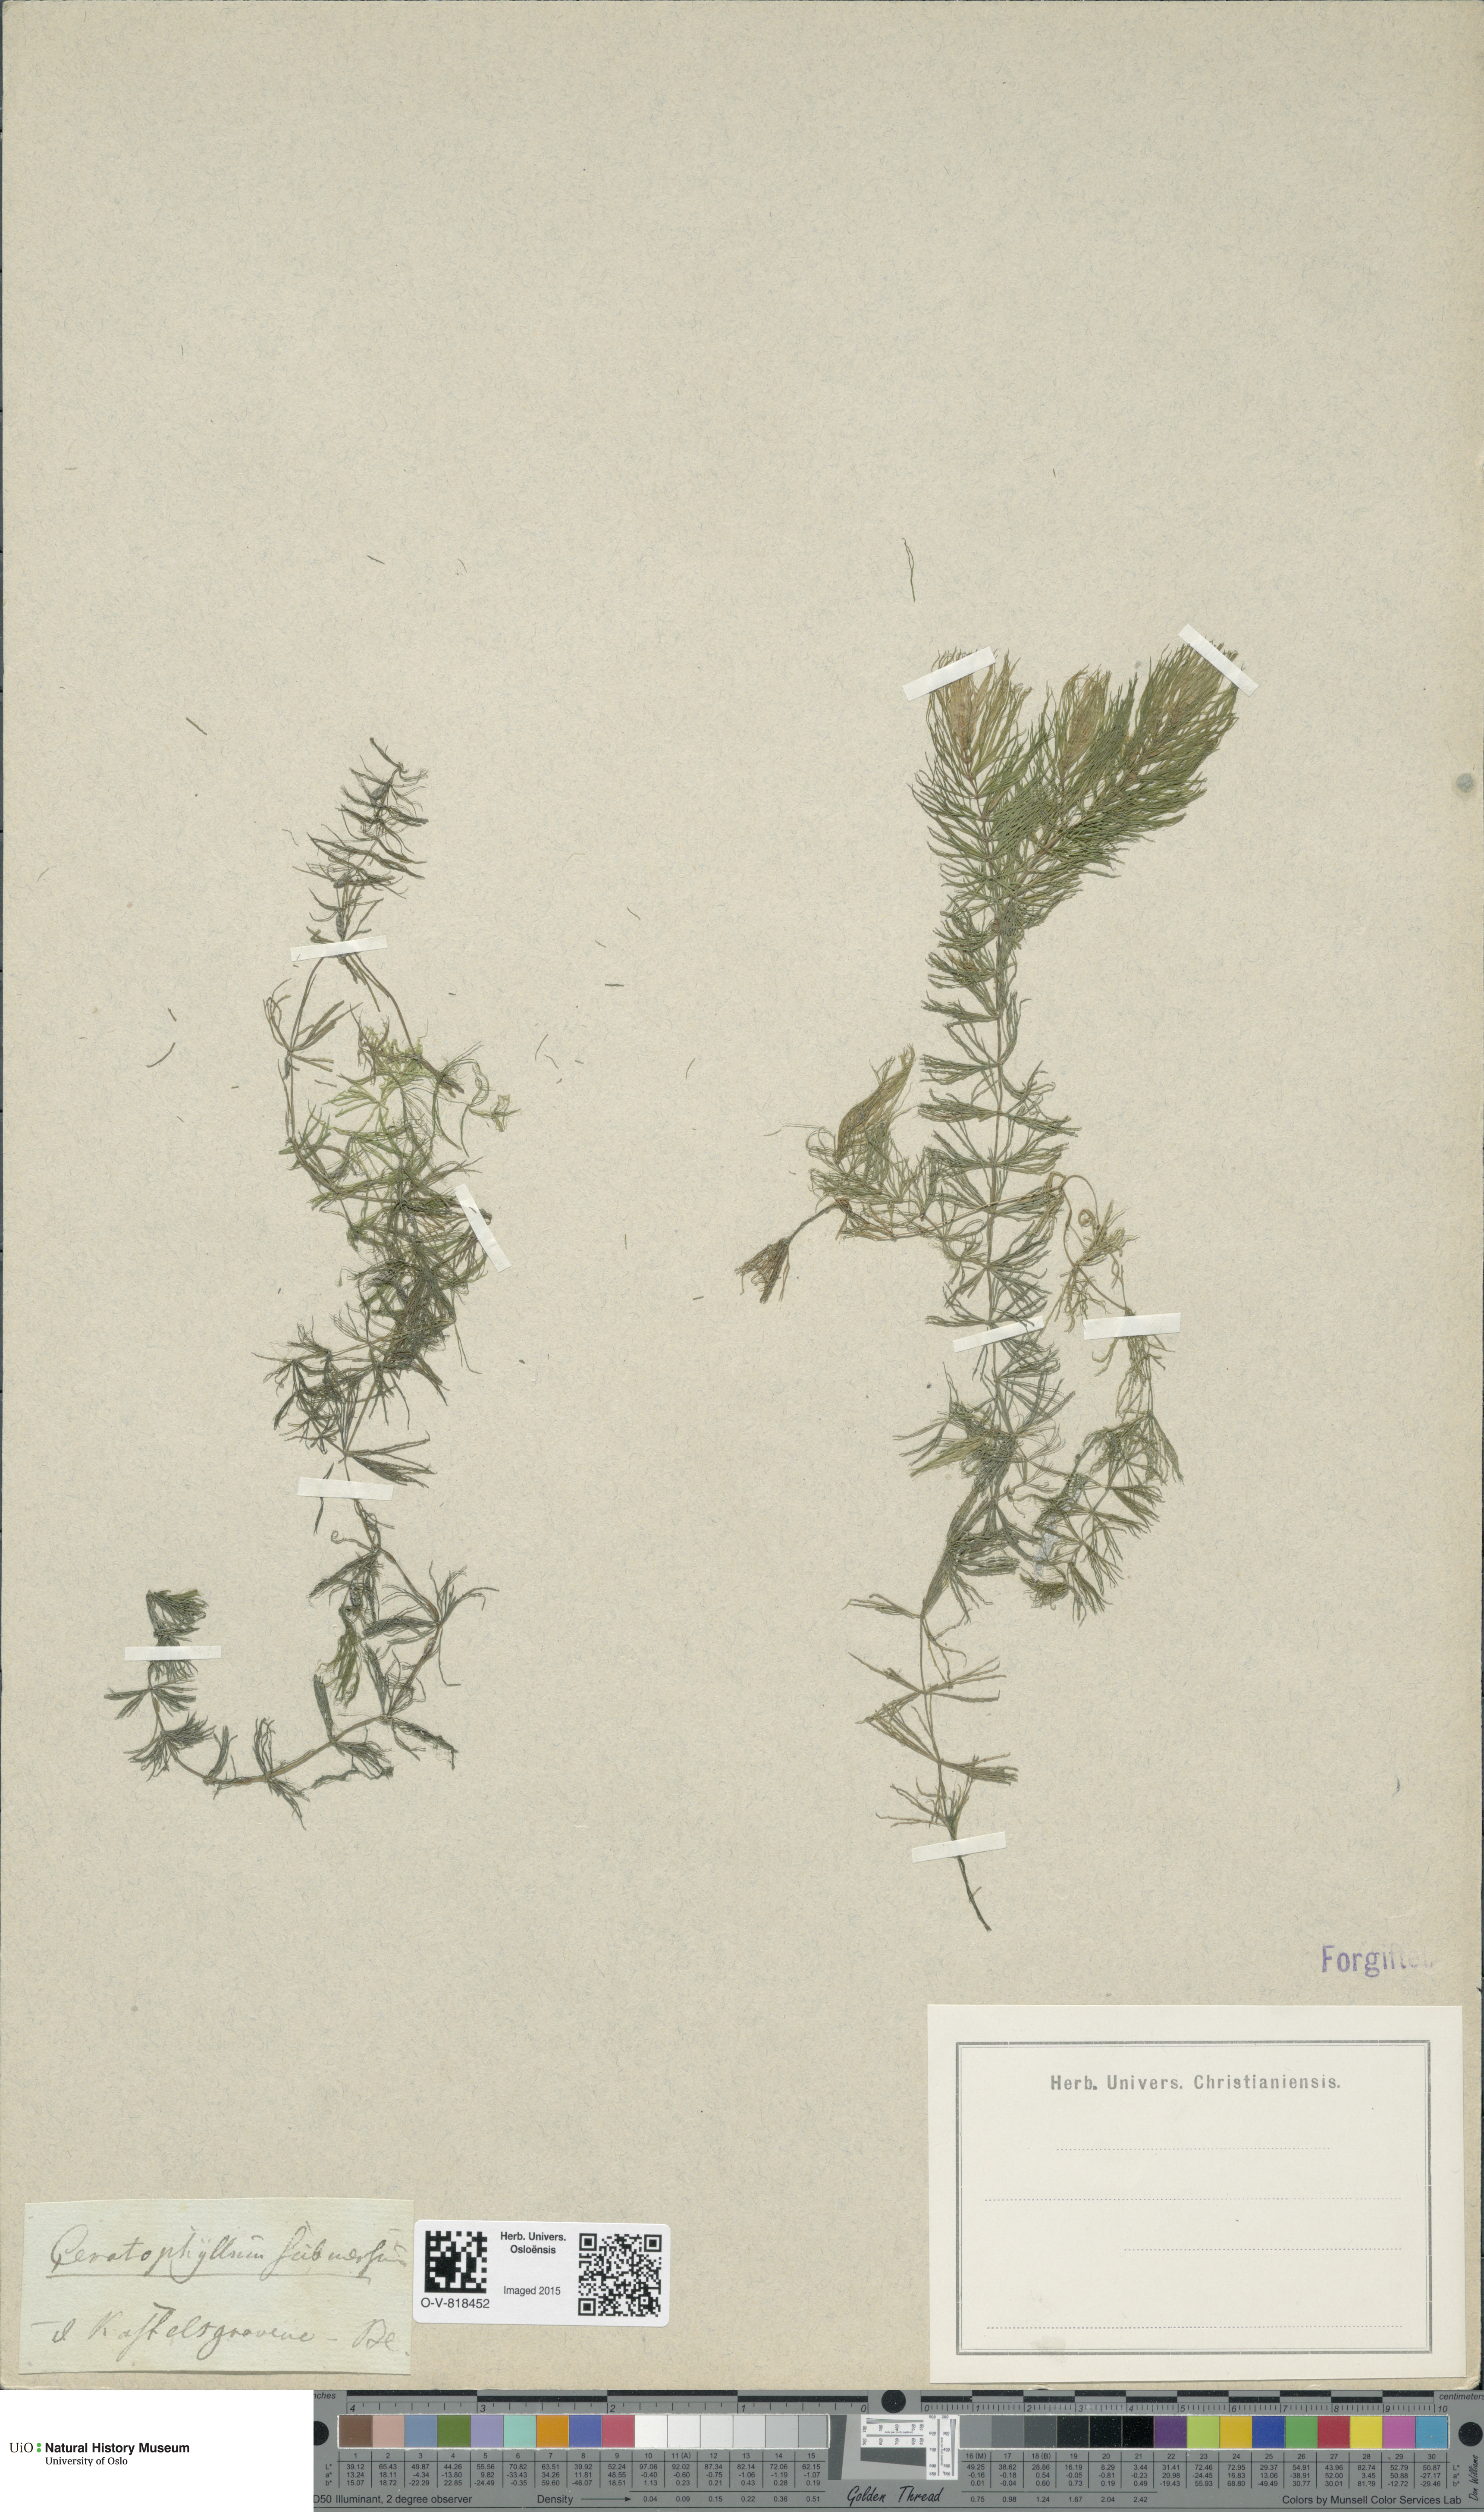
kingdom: Plantae
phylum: Tracheophyta
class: Magnoliopsida
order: Ceratophyllales
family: Ceratophyllaceae
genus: Ceratophyllum
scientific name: Ceratophyllum submersum
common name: Soft hornwort
